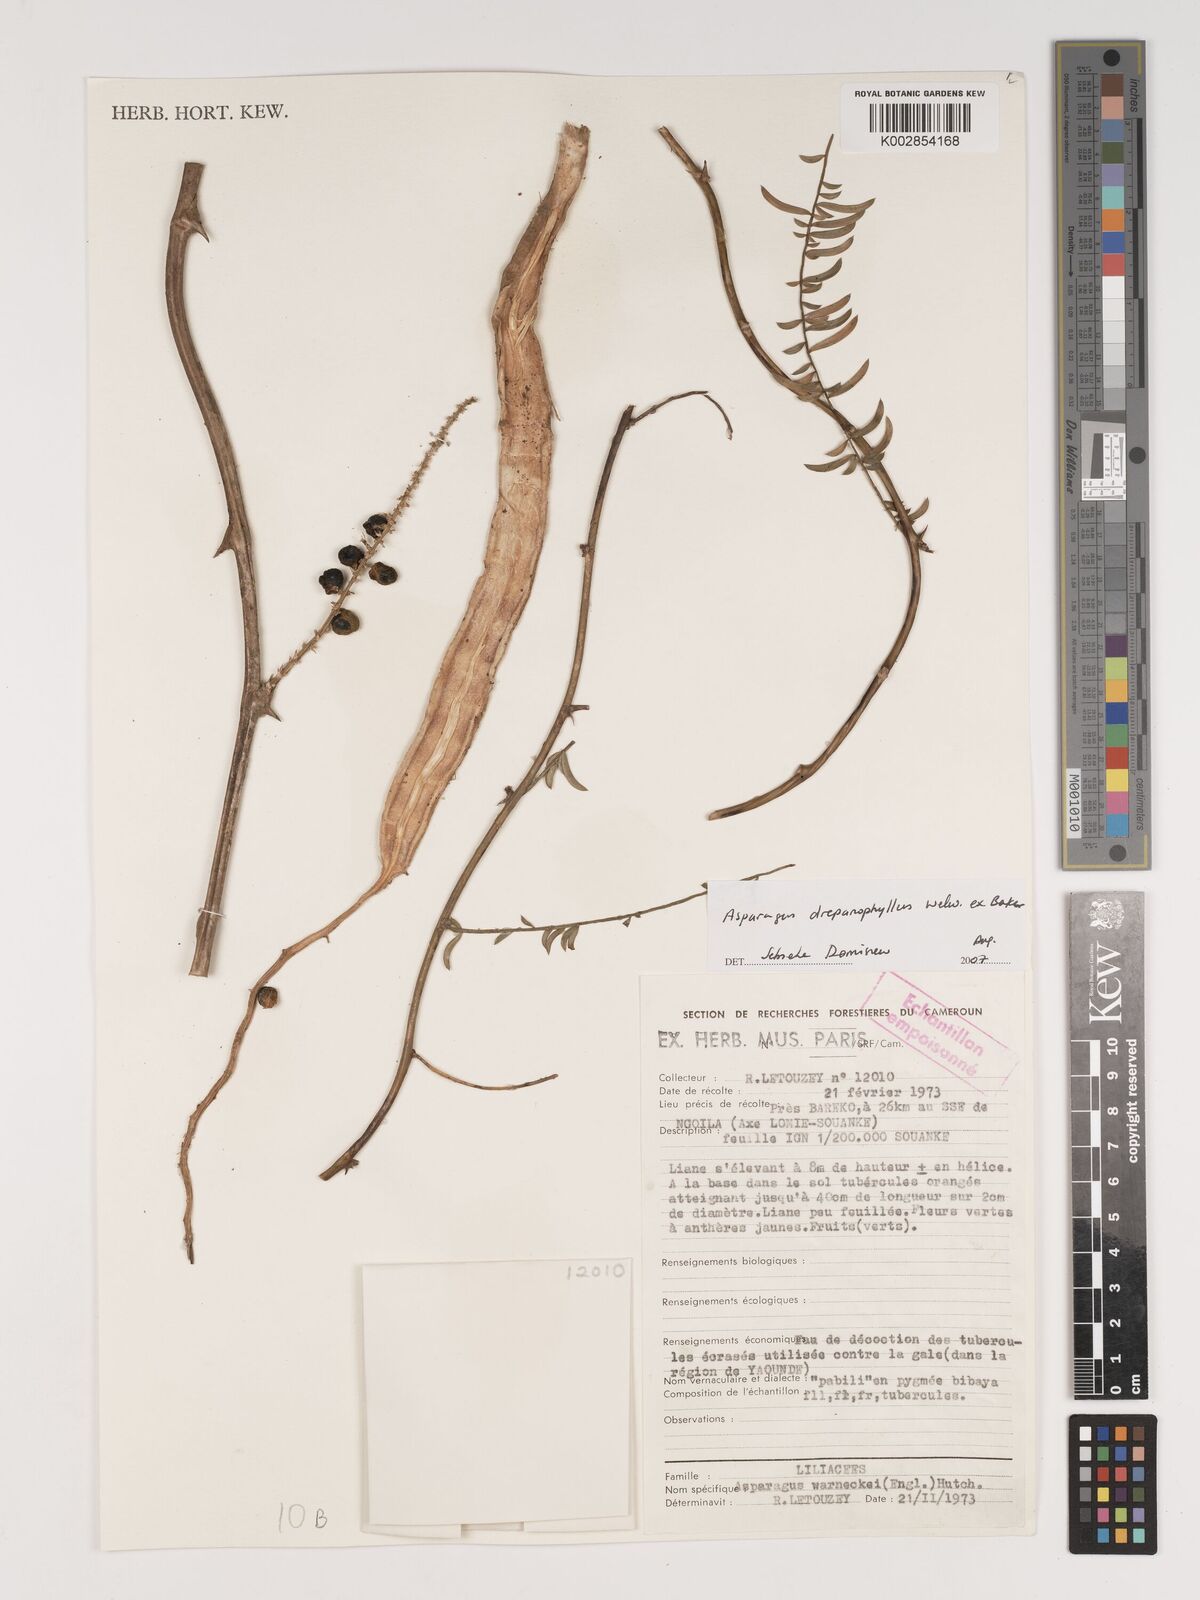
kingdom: Plantae
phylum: Tracheophyta
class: Liliopsida
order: Asparagales
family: Asparagaceae
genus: Asparagus
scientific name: Asparagus drepanophyllus
